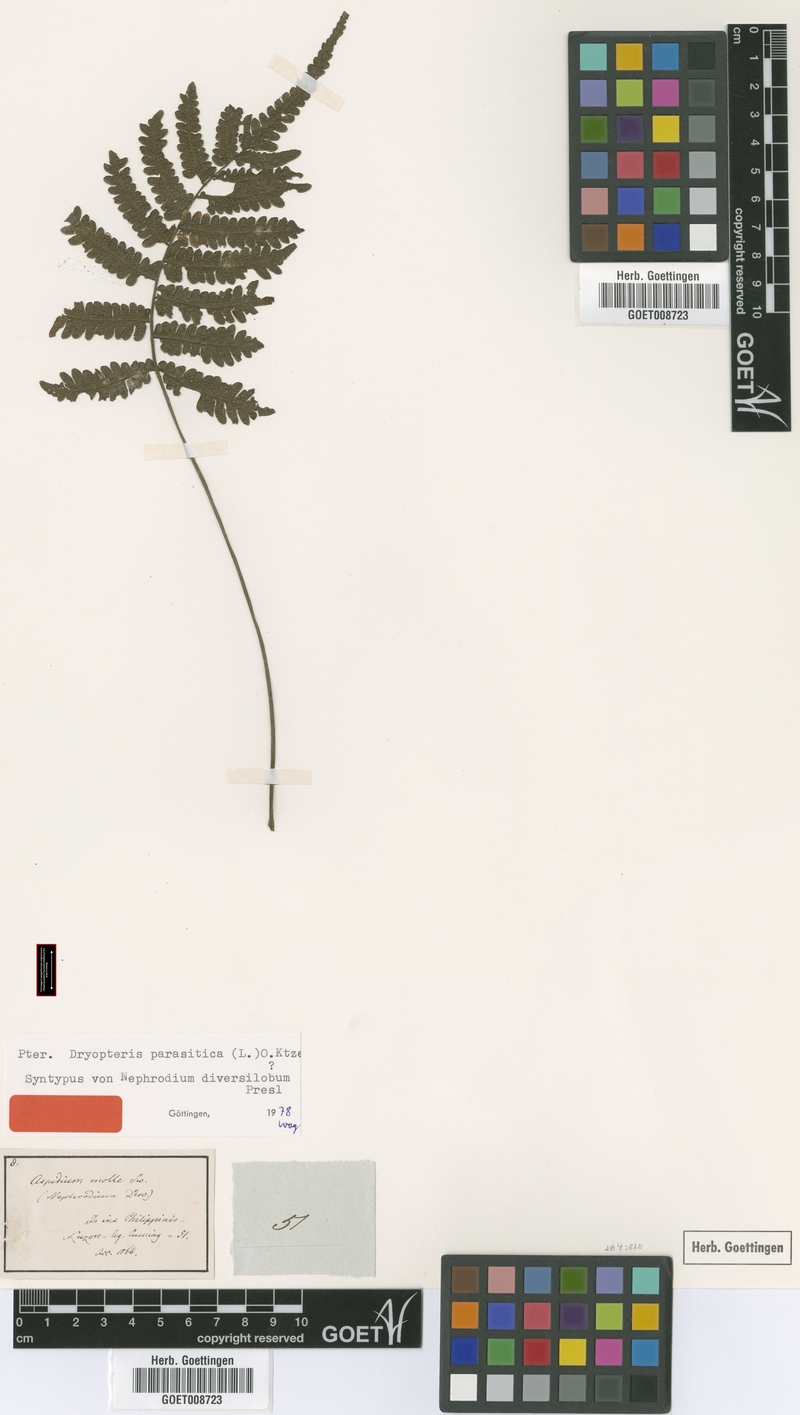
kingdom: Plantae
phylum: Tracheophyta
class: Polypodiopsida
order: Polypodiales
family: Thelypteridaceae
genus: Christella
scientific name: Christella parasitica
